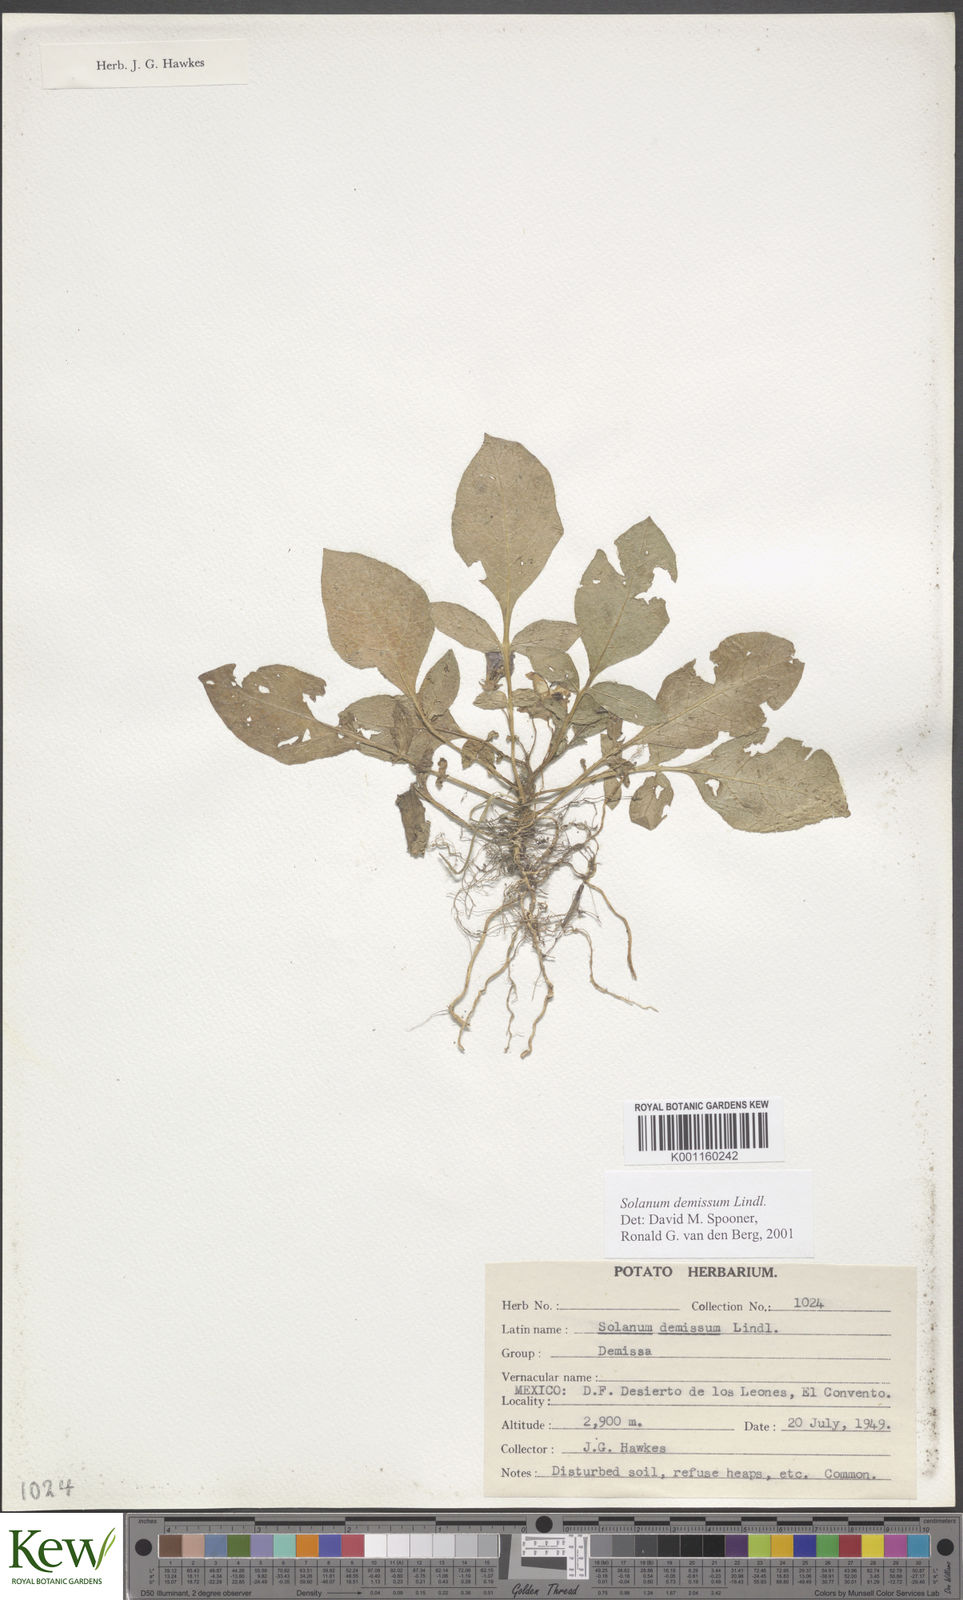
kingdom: Plantae
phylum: Tracheophyta
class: Magnoliopsida
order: Solanales
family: Solanaceae
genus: Solanum
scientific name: Solanum demissum
